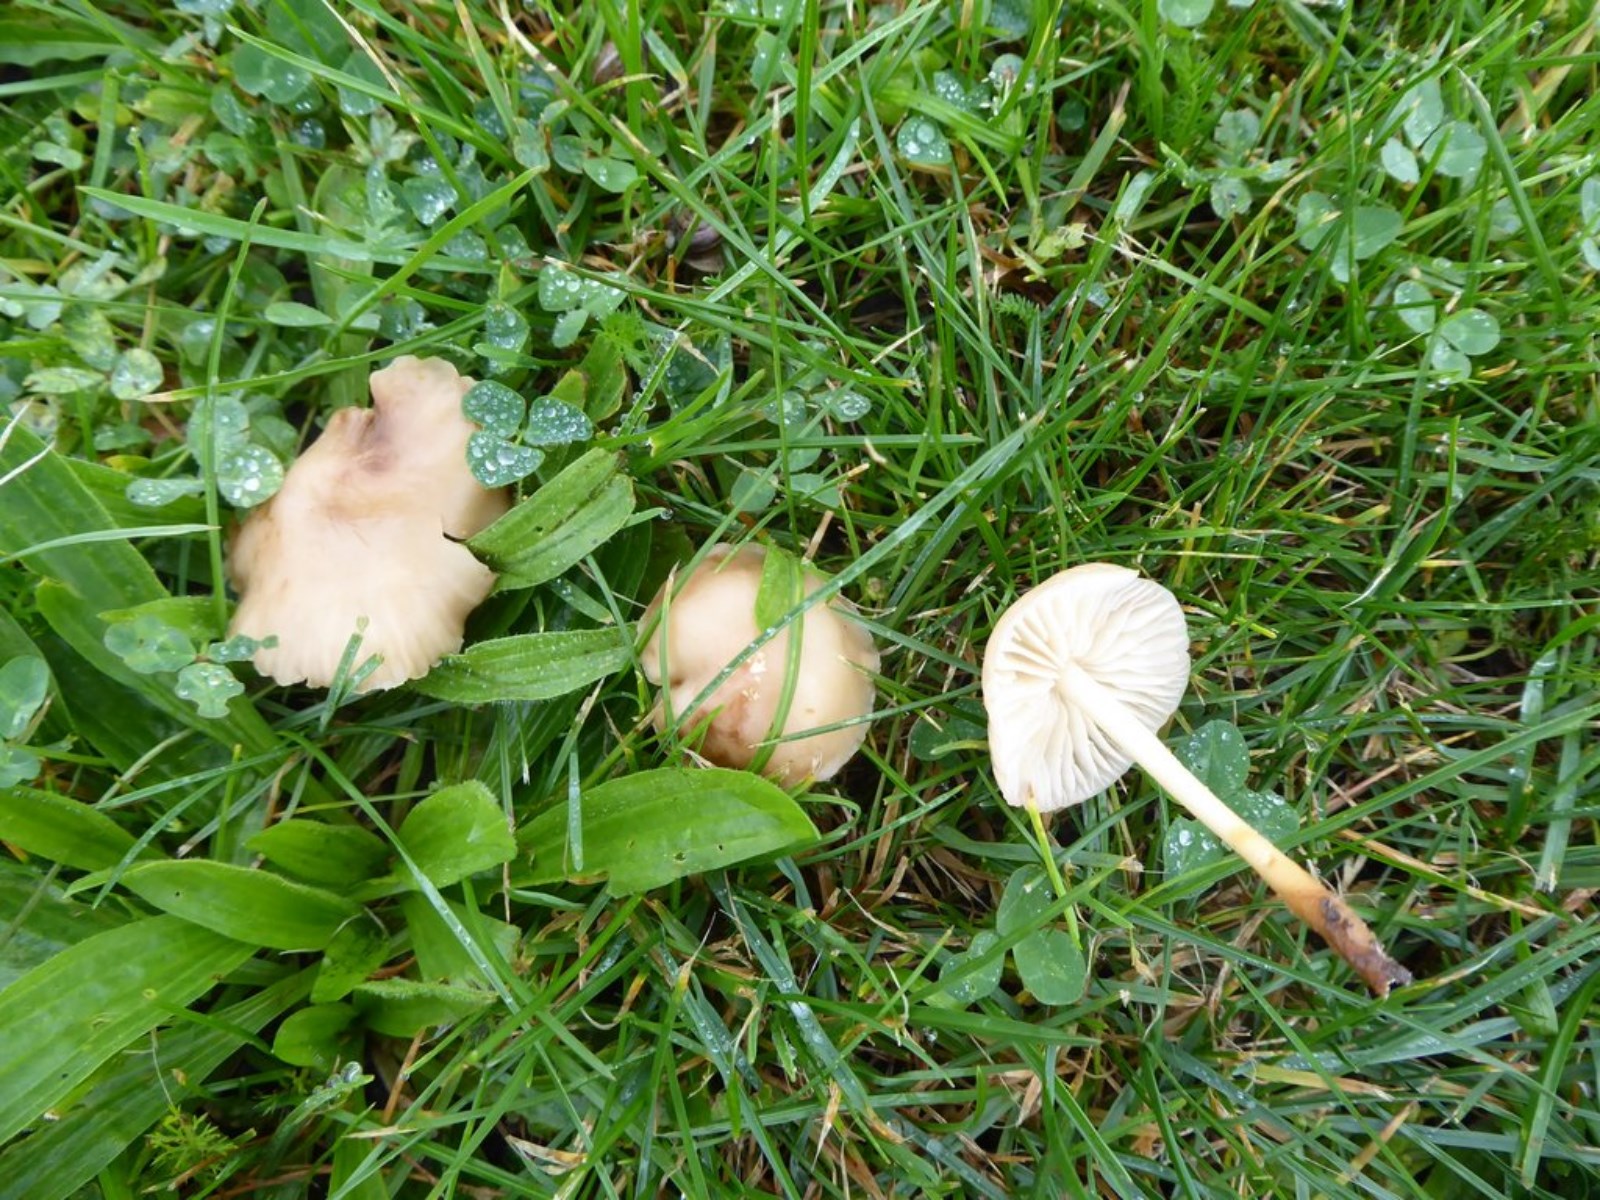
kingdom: Fungi
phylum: Basidiomycota
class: Agaricomycetes
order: Agaricales
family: Marasmiaceae
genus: Marasmius
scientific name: Marasmius oreades
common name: elledans-bruskhat
